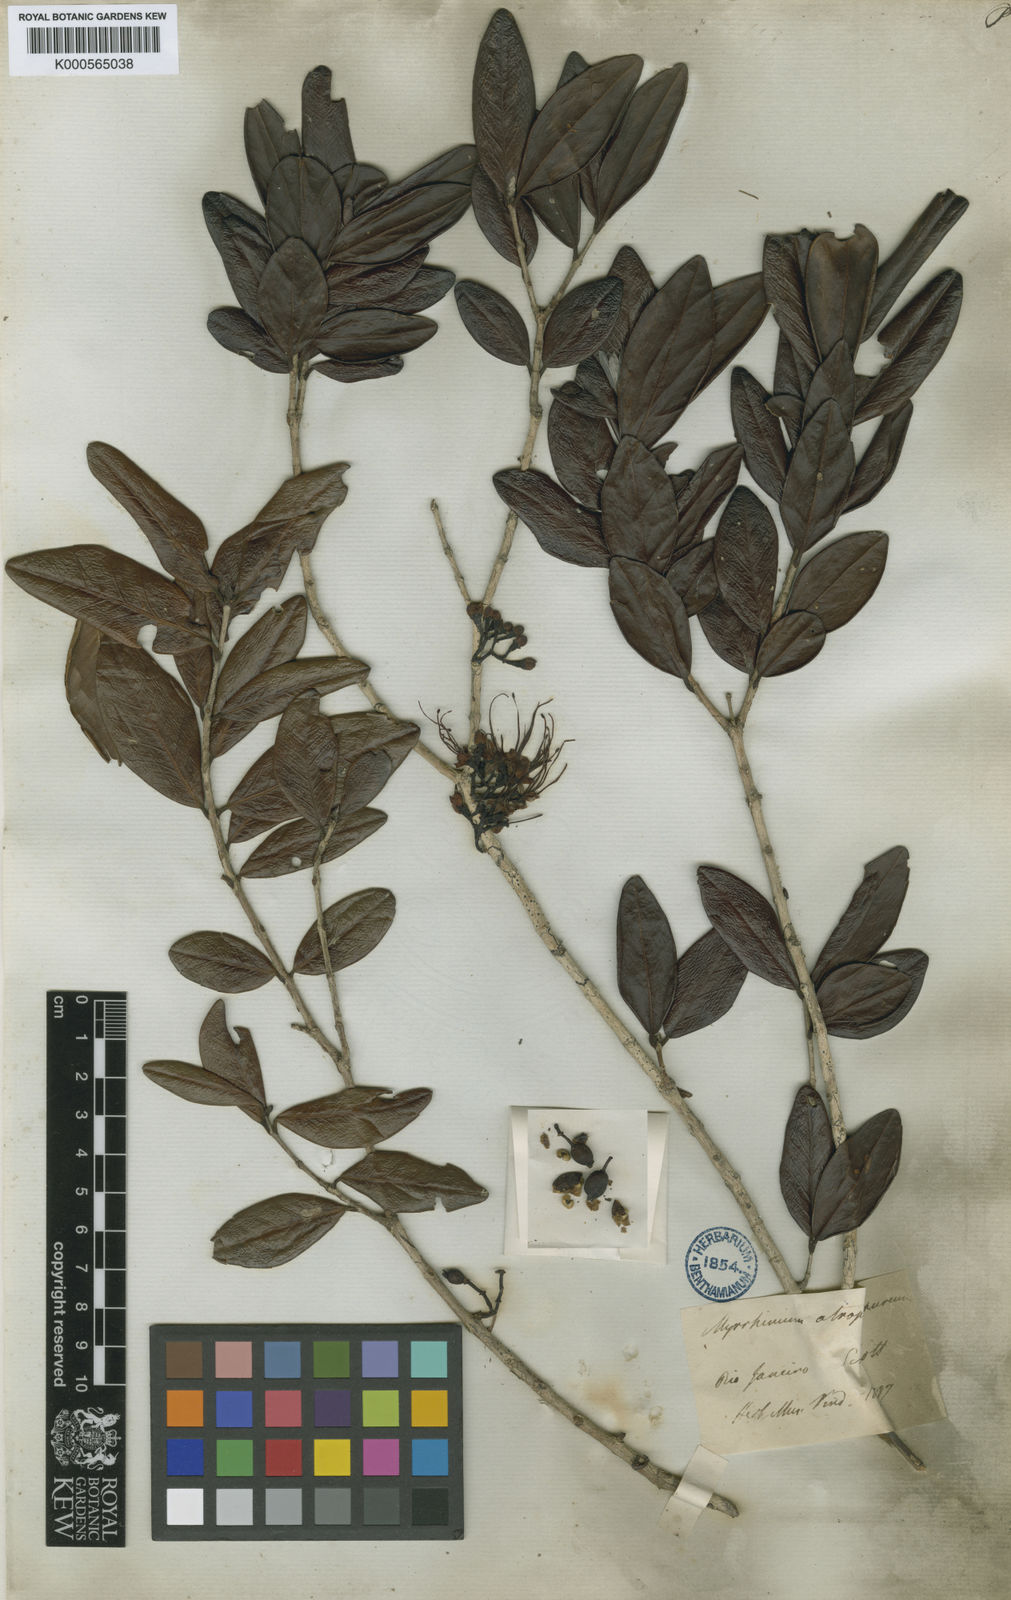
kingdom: Plantae
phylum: Tracheophyta
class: Magnoliopsida
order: Myrtales
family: Myrtaceae
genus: Myrrhinium
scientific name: Myrrhinium atropurpureum
